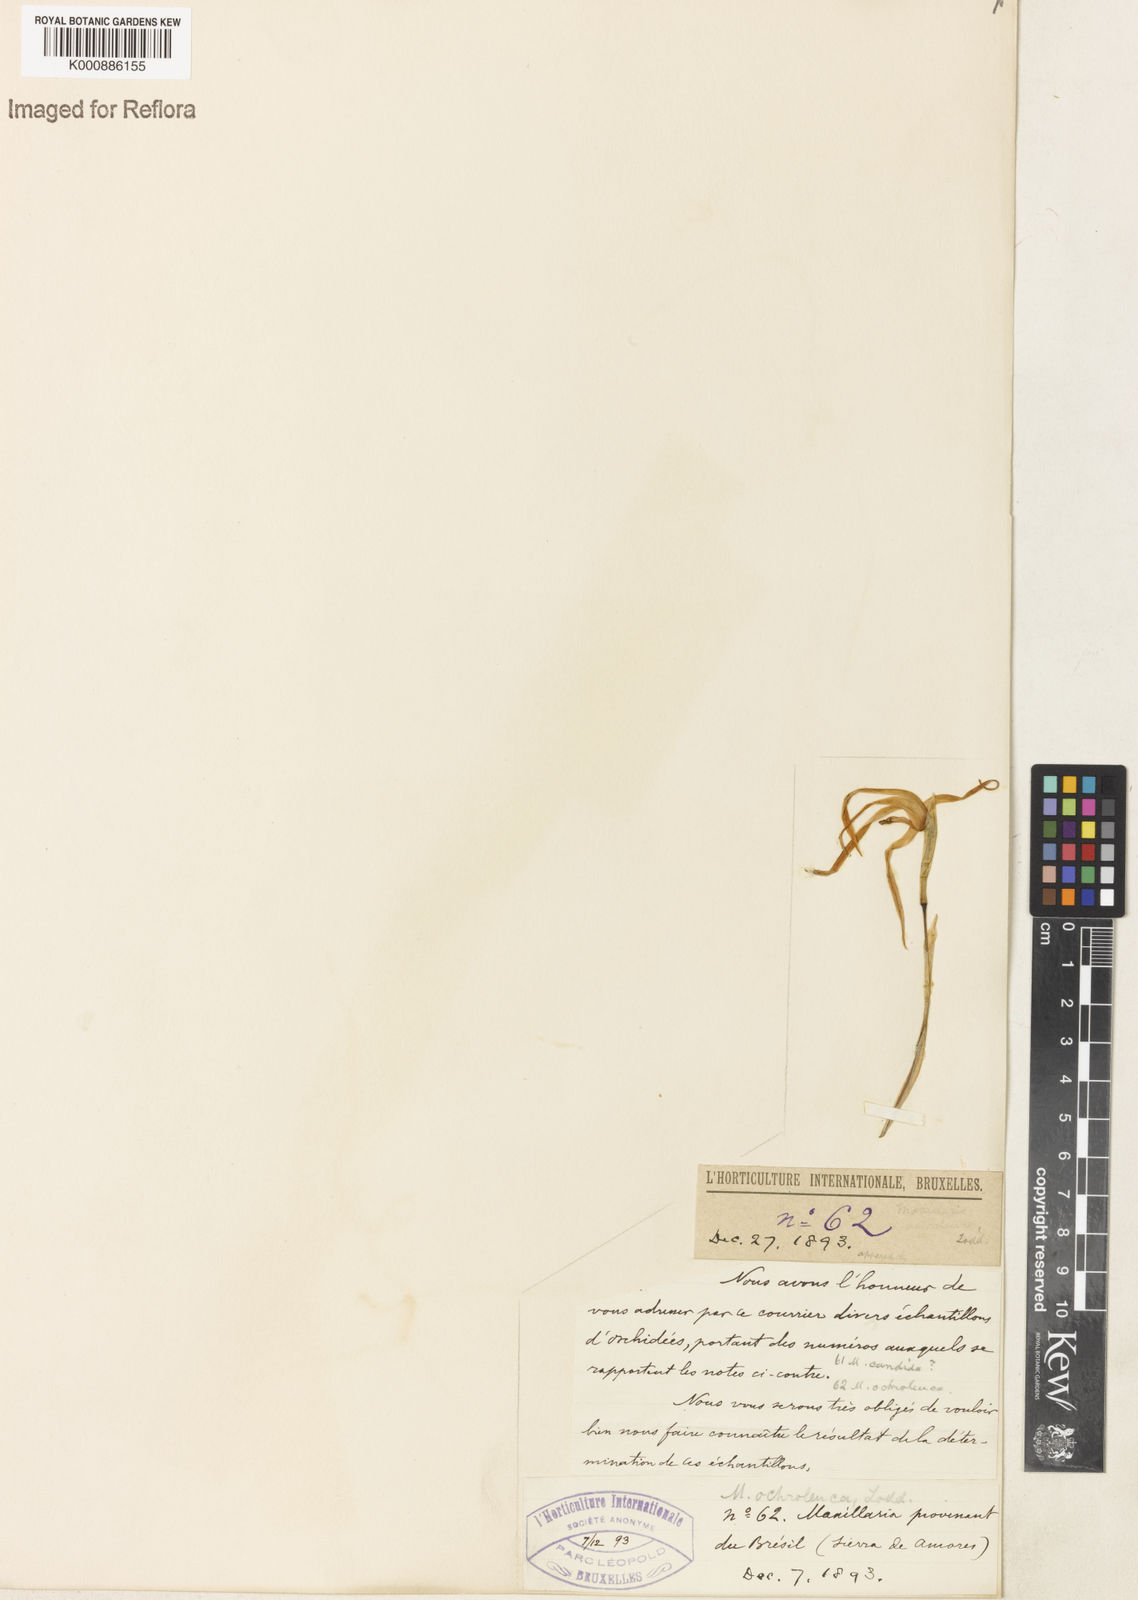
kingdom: Plantae
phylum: Tracheophyta
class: Liliopsida
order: Asparagales
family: Orchidaceae
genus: Maxillaria
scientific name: Maxillaria ochroleuca
